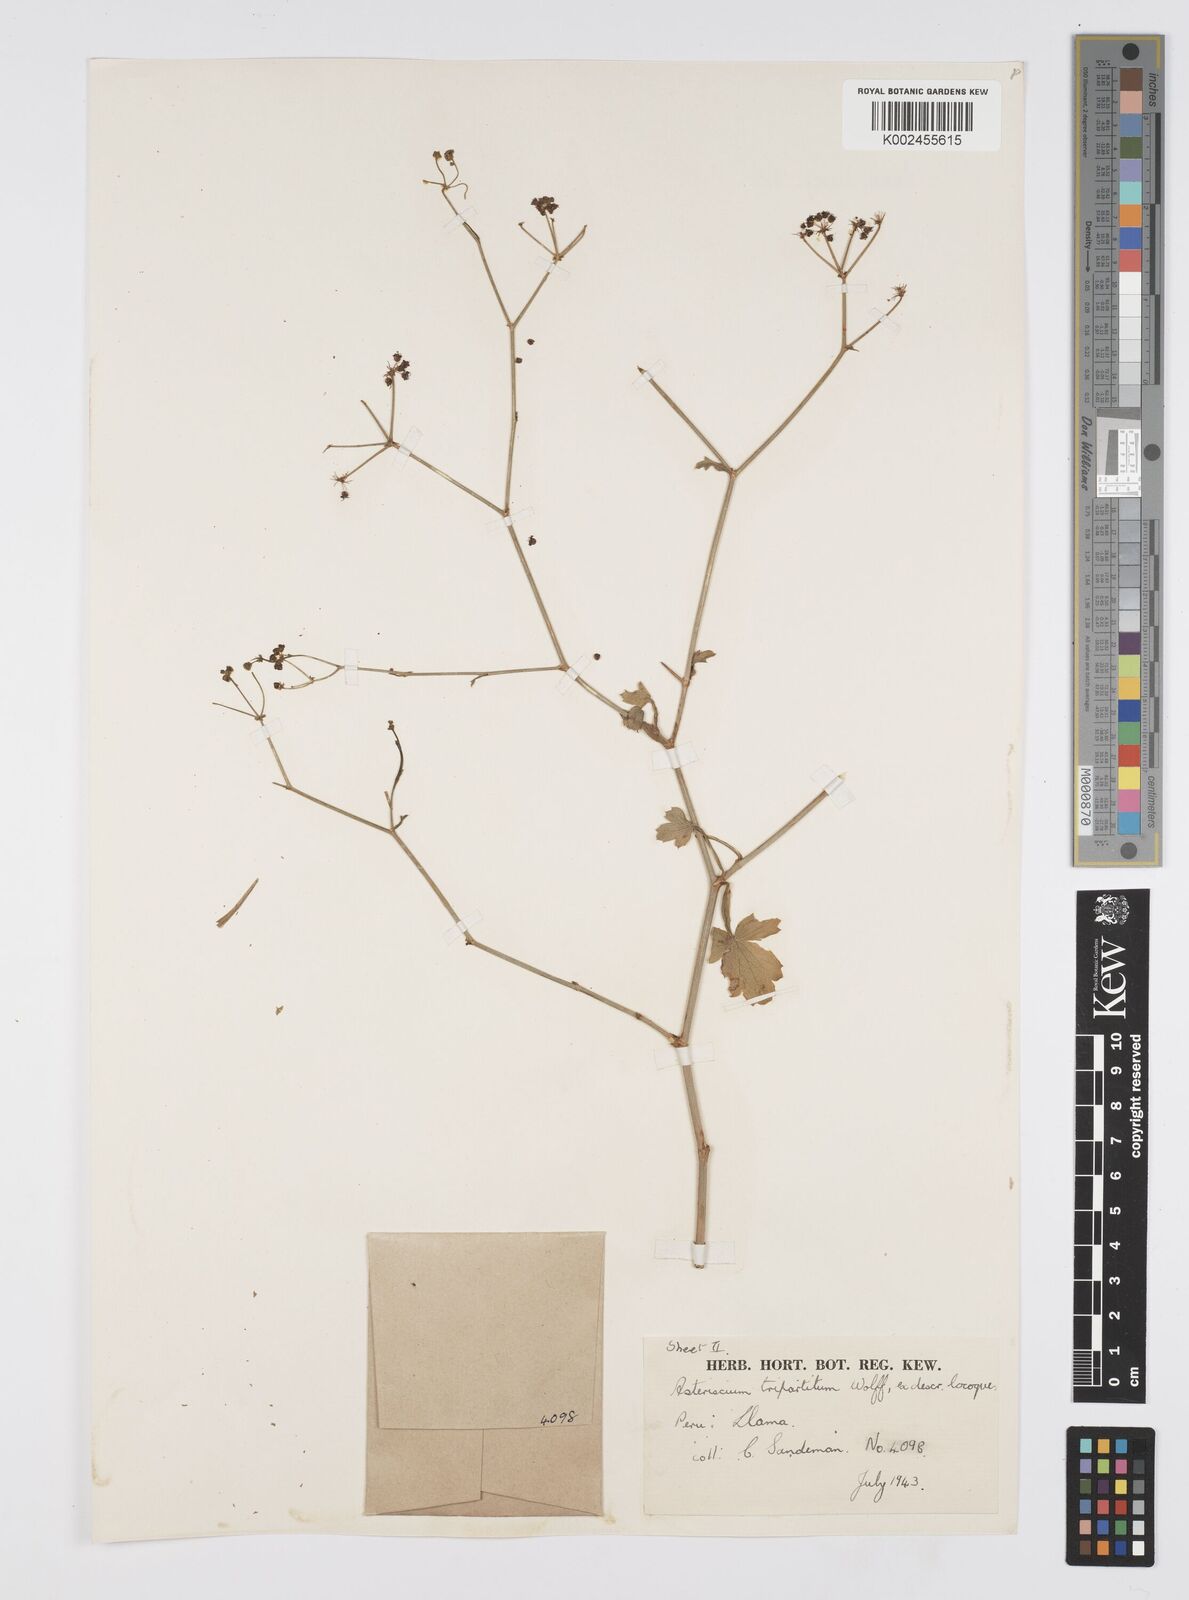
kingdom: Plantae
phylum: Tracheophyta
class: Magnoliopsida
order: Apiales
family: Apiaceae
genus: Eremocharis
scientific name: Eremocharis tripartita
